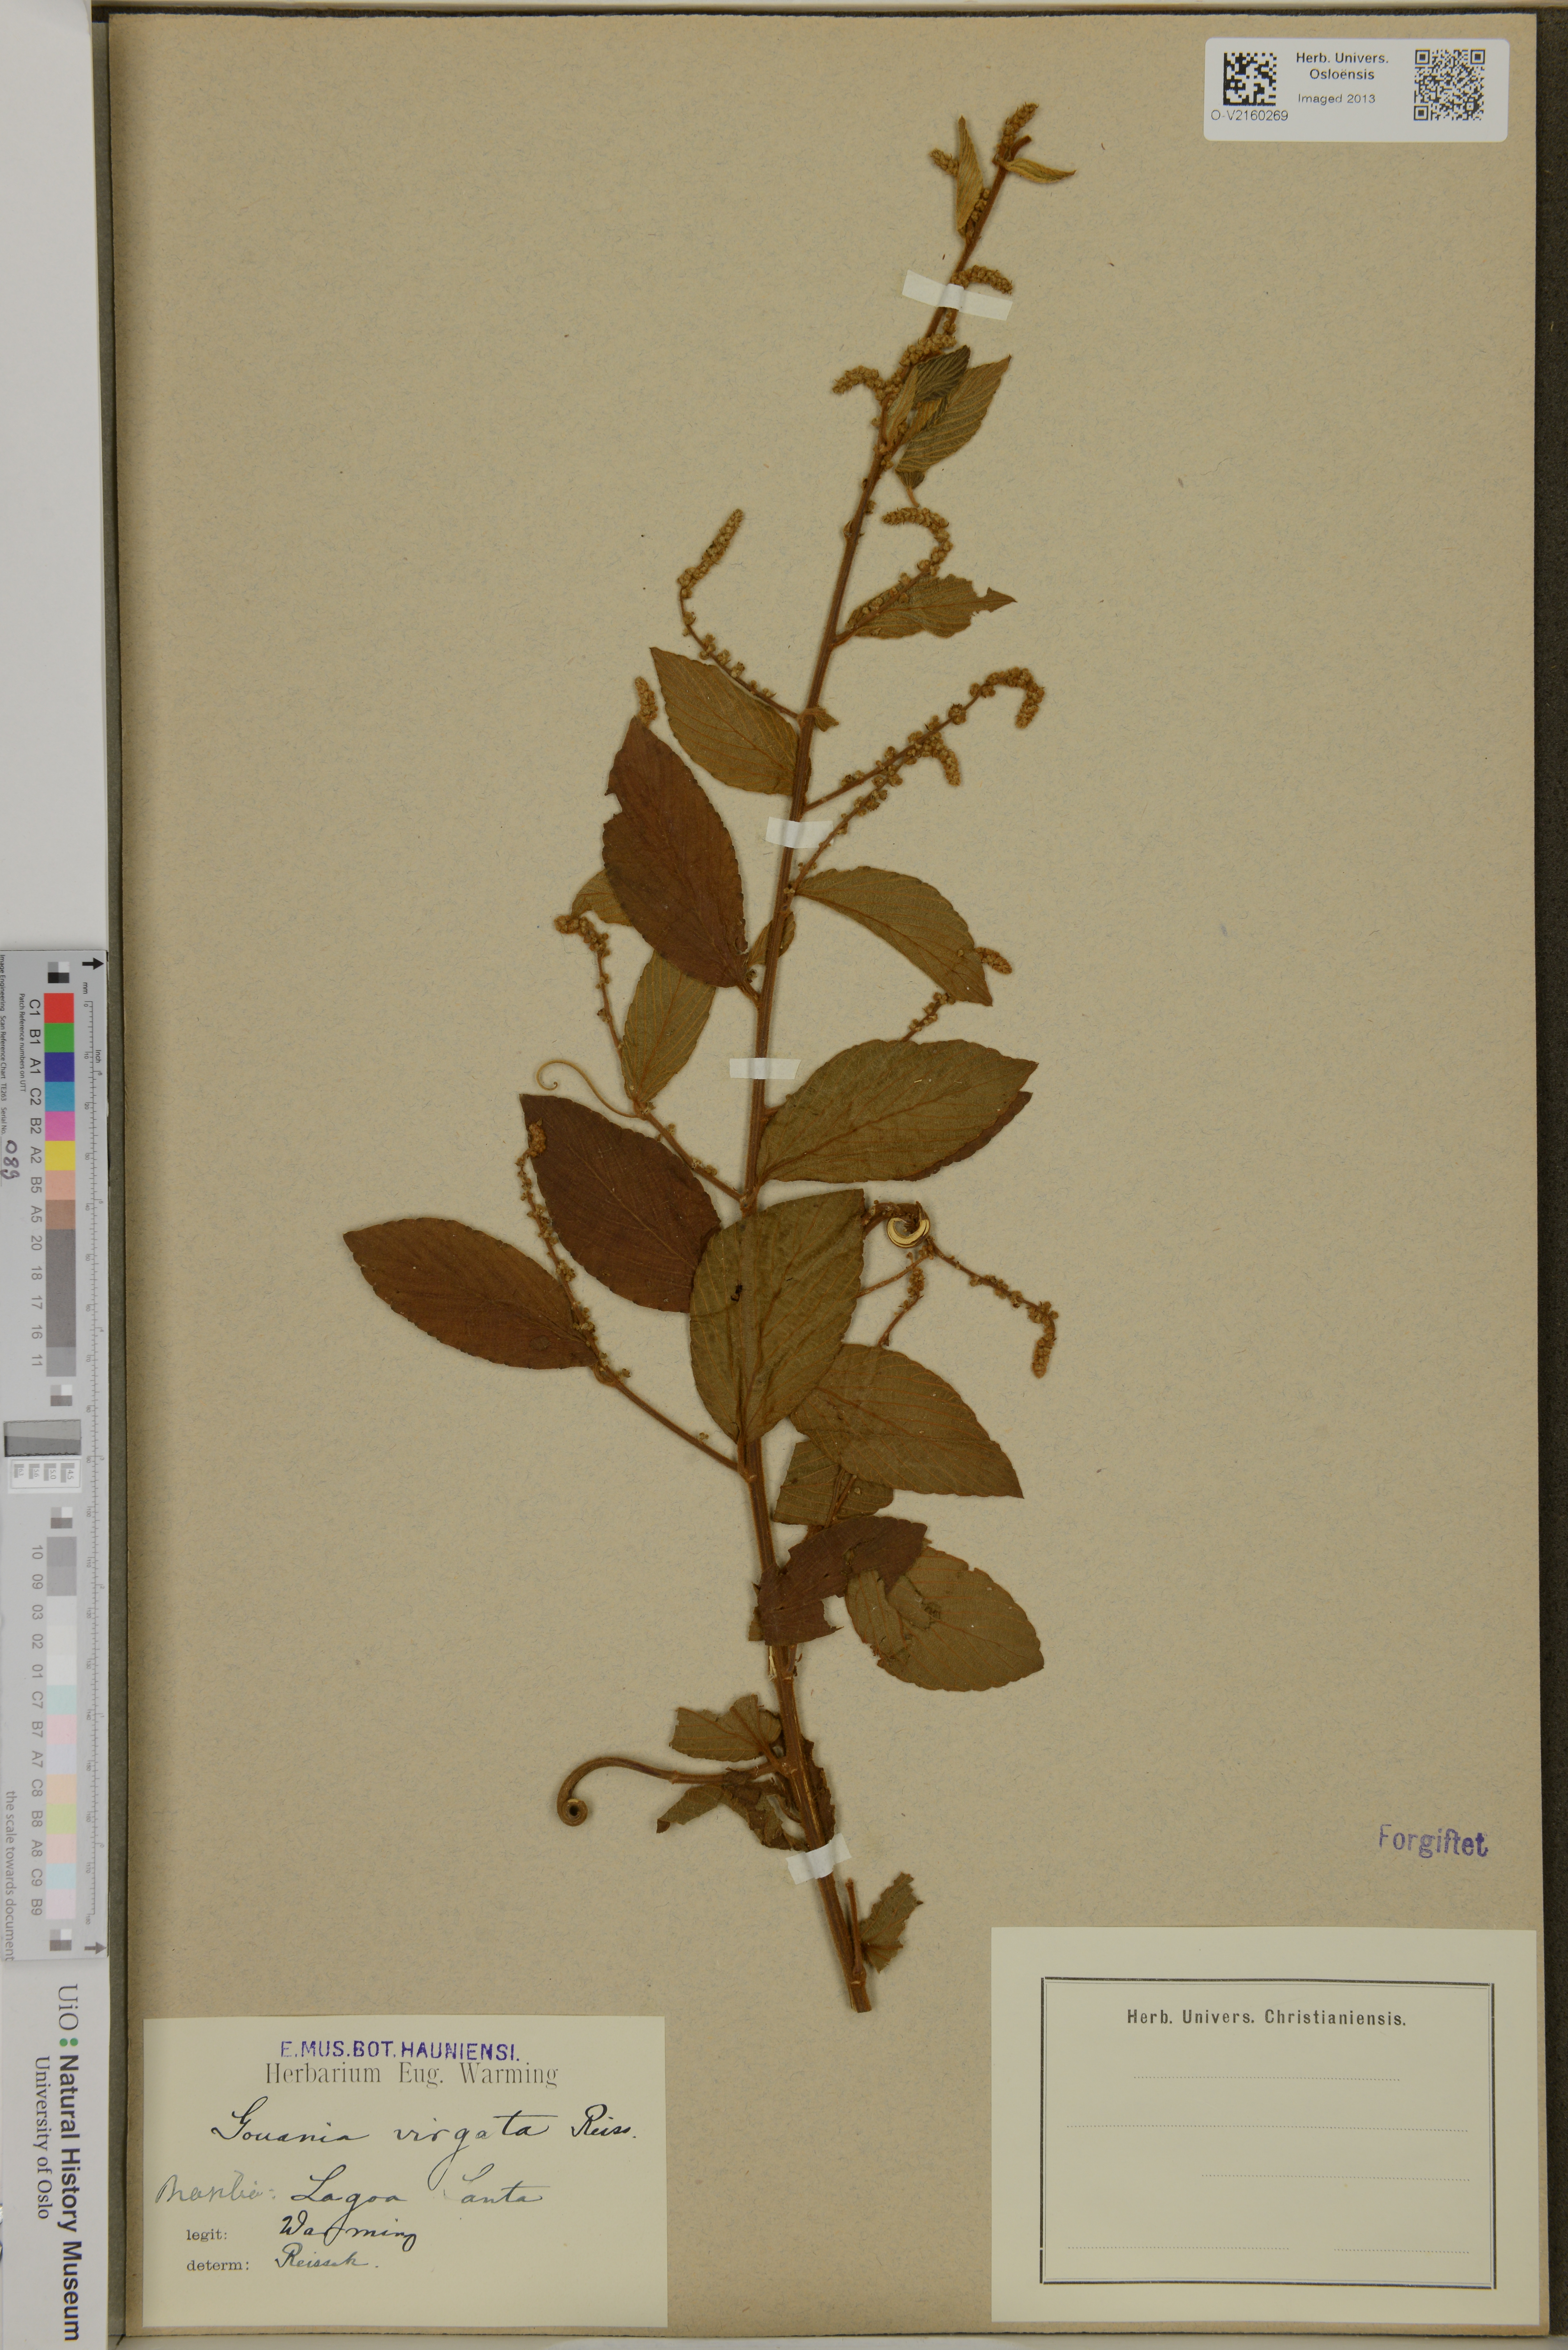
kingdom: Plantae
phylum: Tracheophyta
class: Magnoliopsida
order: Rosales
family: Rhamnaceae
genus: Gouania
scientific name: Gouania lupuloides
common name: Chewstick
